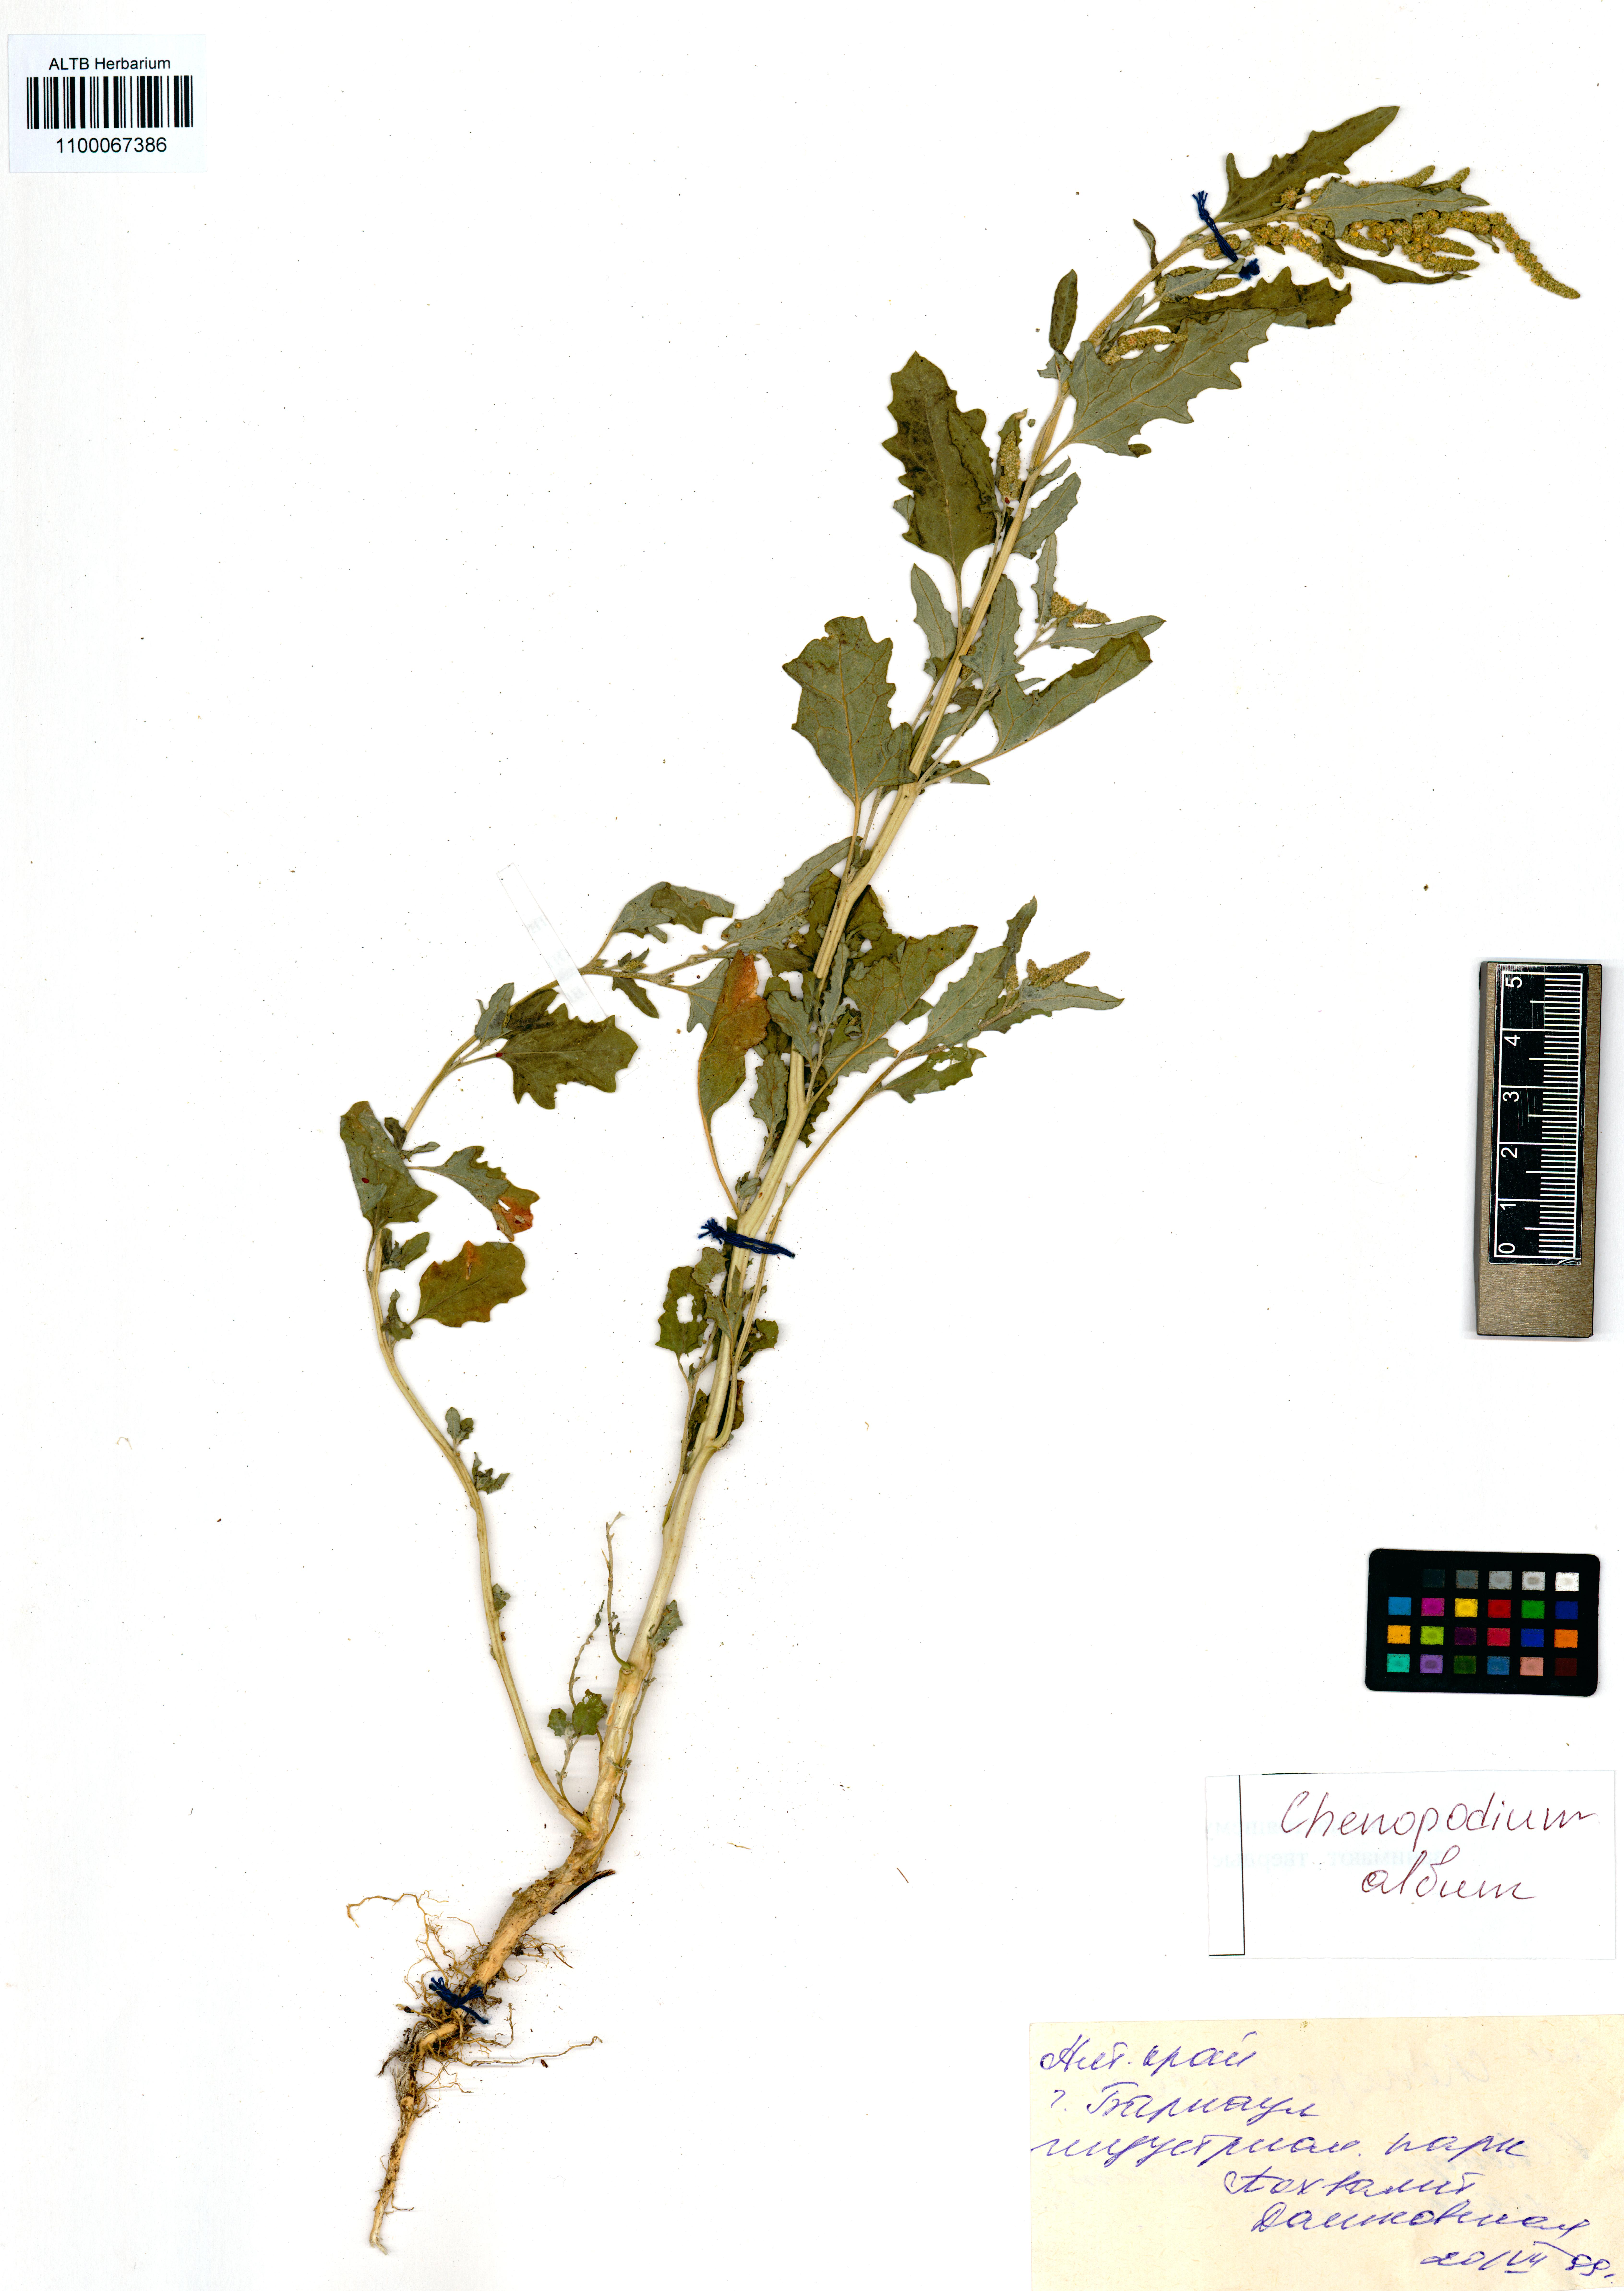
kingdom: Plantae
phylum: Tracheophyta
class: Magnoliopsida
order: Caryophyllales
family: Amaranthaceae
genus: Chenopodium
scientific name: Chenopodium album
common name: Fat-hen
